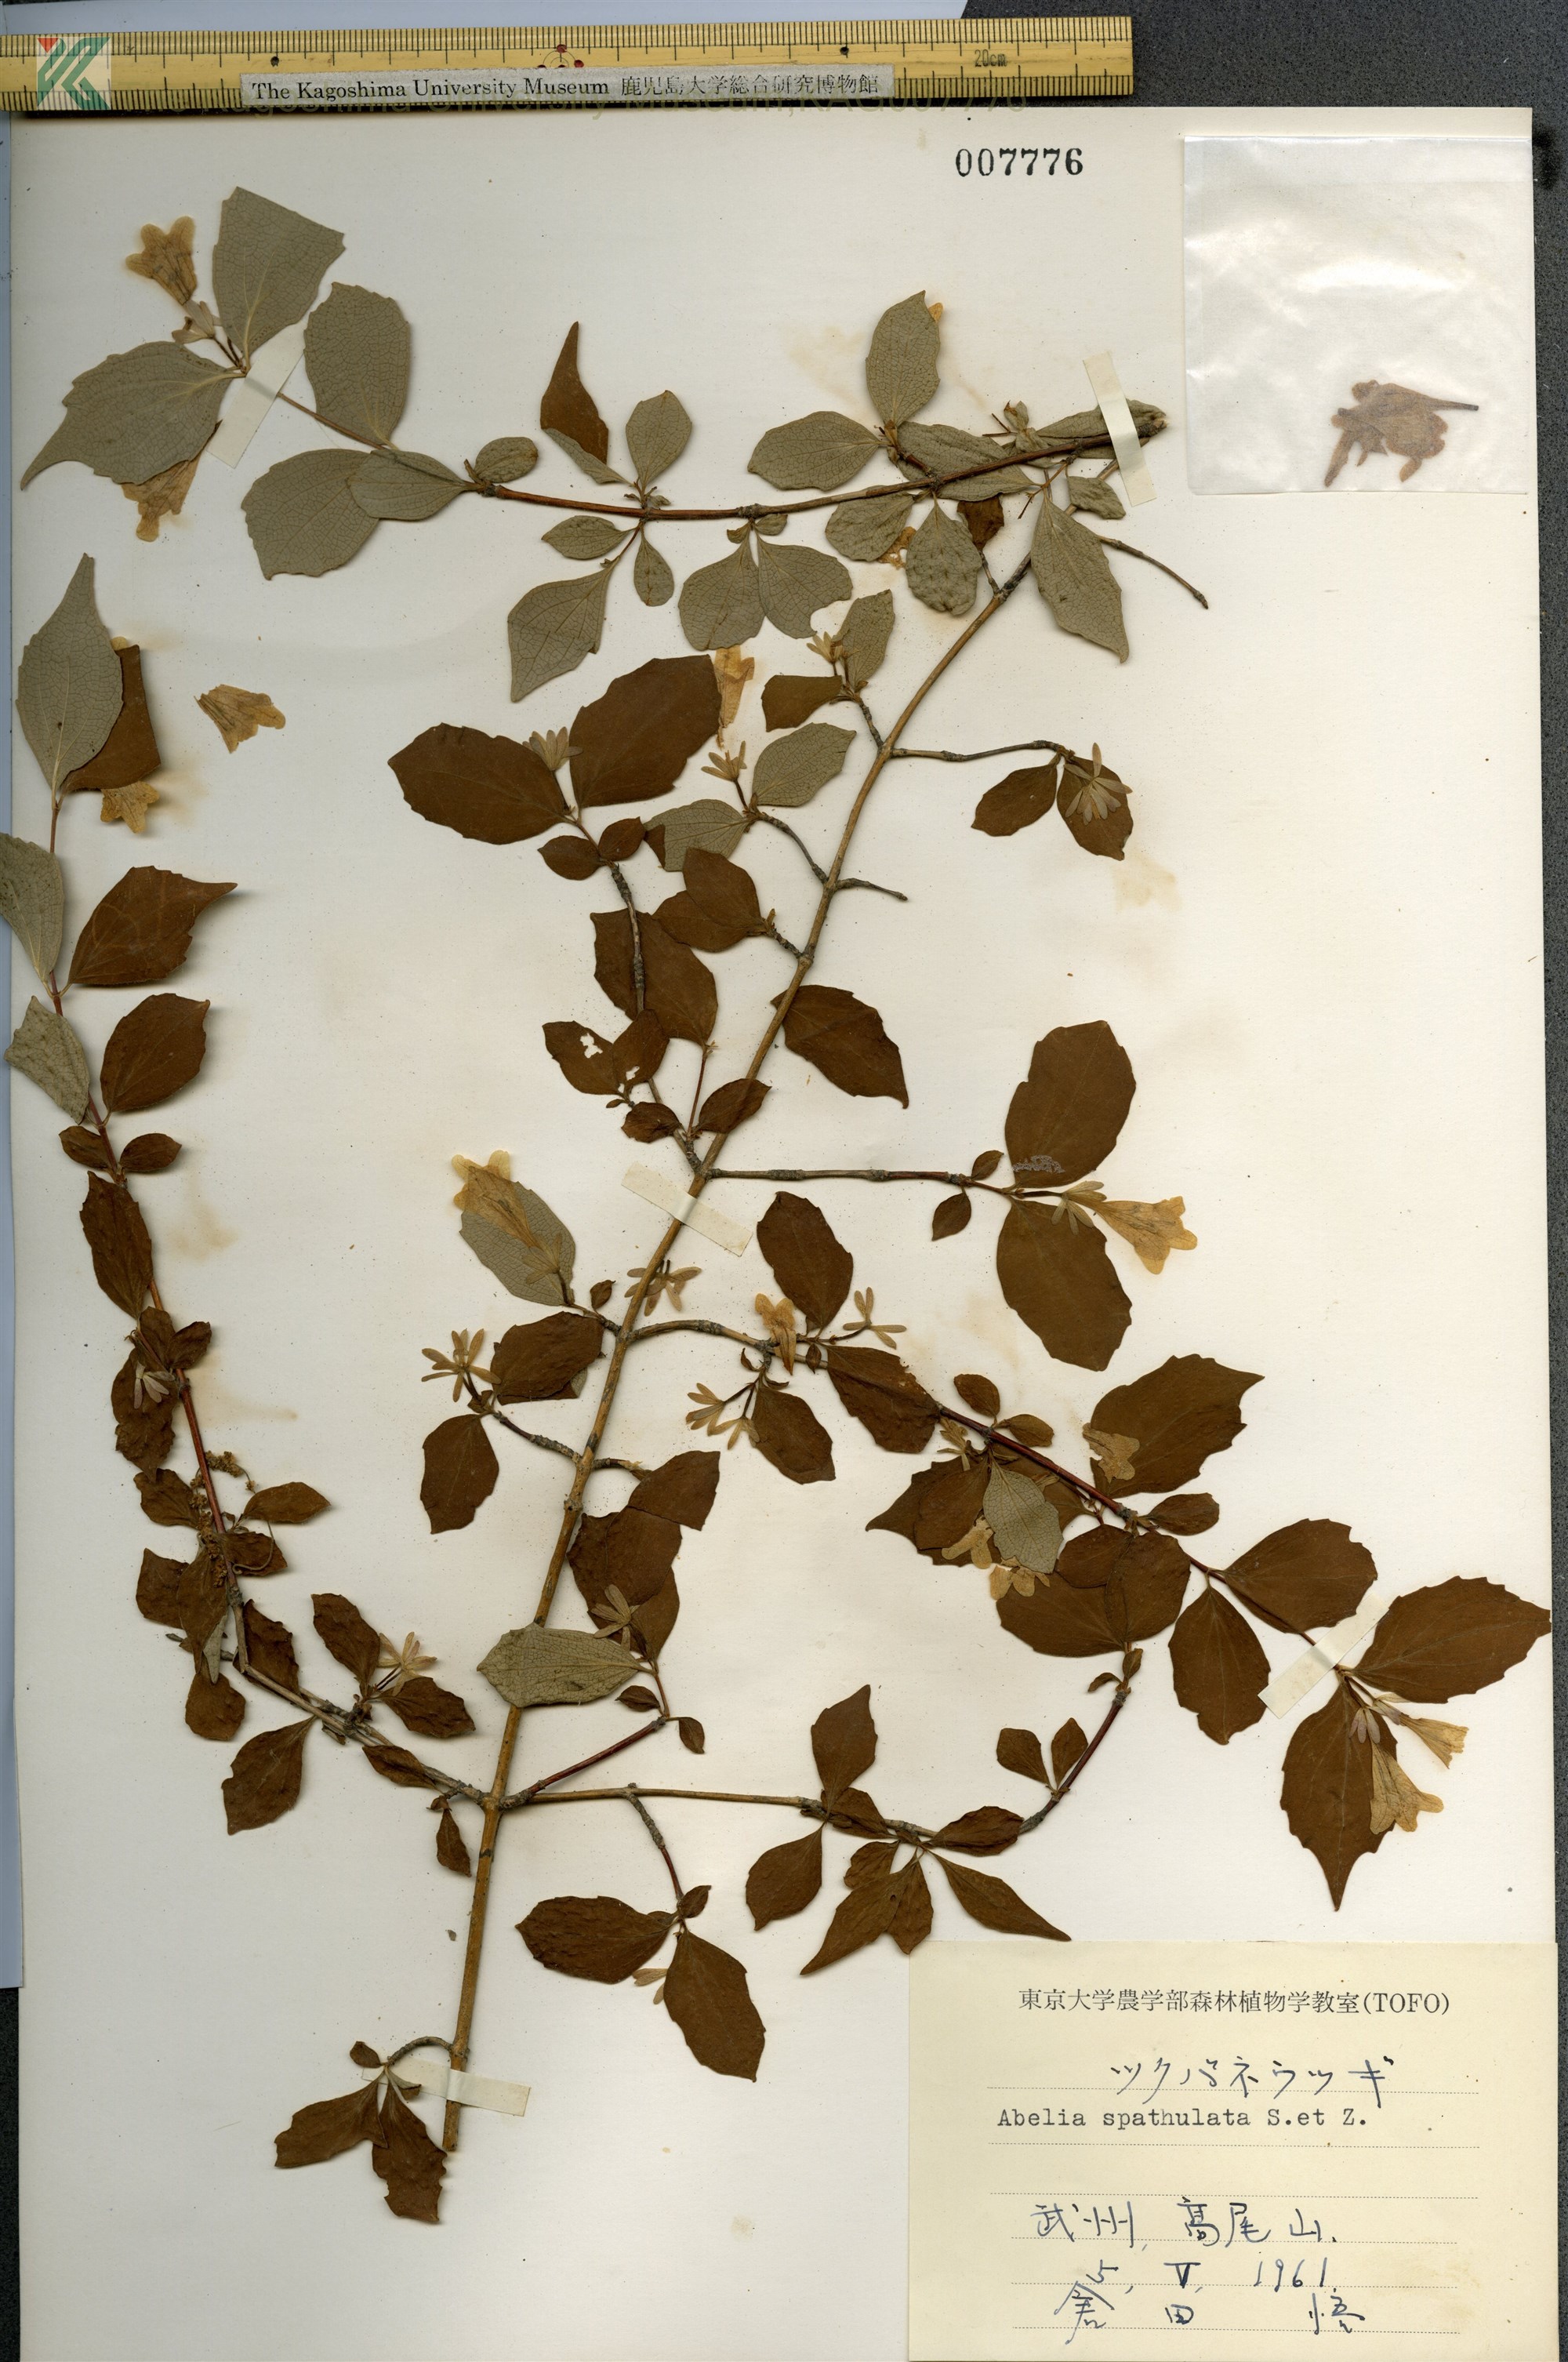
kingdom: Plantae
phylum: Tracheophyta
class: Magnoliopsida
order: Dipsacales
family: Caprifoliaceae
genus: Diabelia
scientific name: Diabelia spathulata
